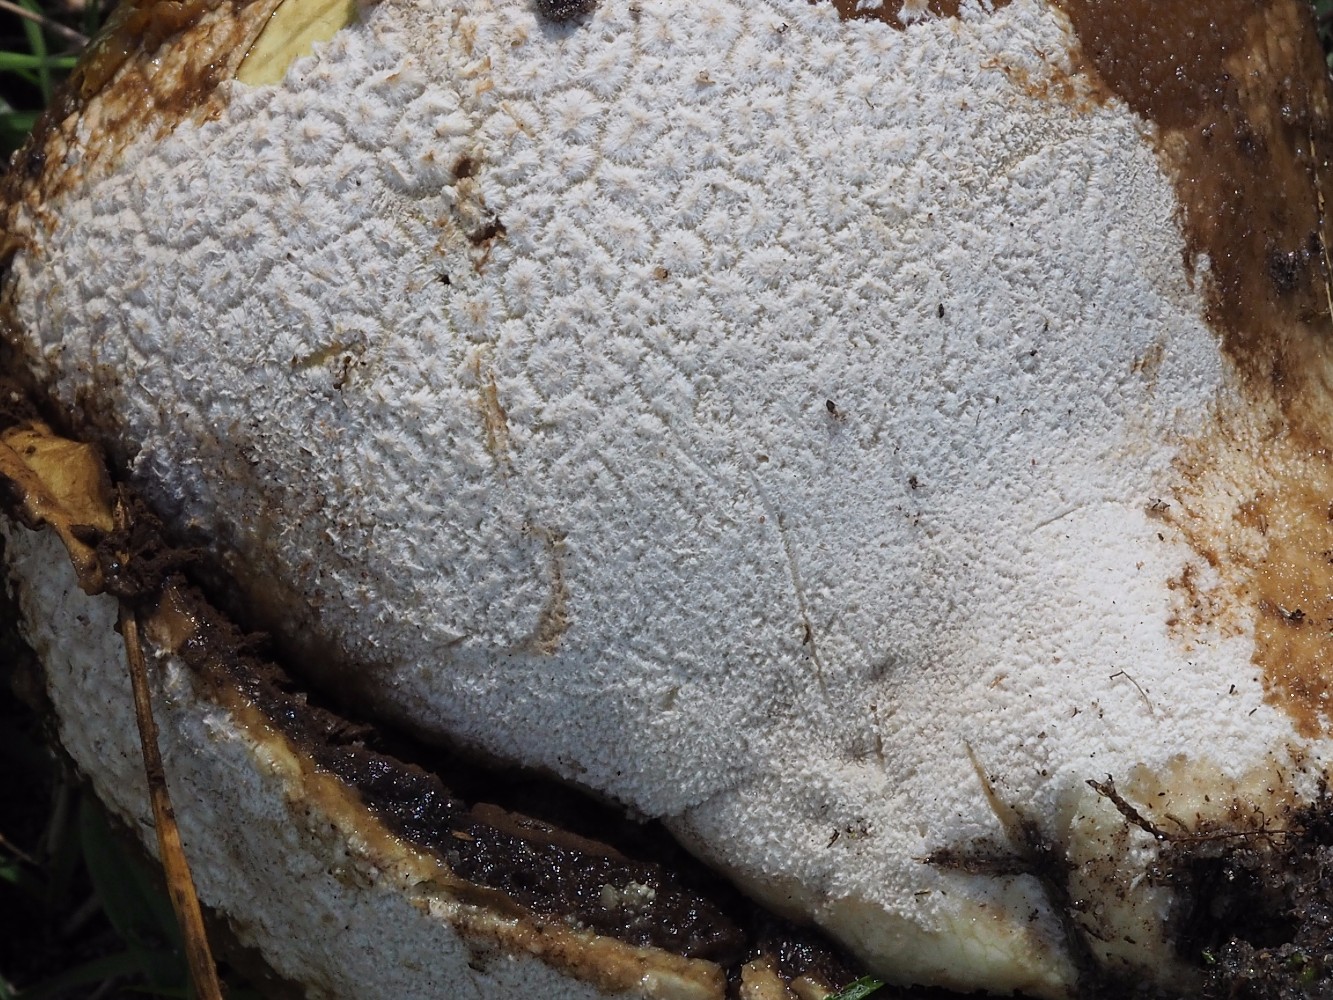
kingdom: Fungi
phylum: Basidiomycota
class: Agaricomycetes
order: Agaricales
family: Lycoperdaceae
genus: Bovistella
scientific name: Bovistella utriformis
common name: skællet støvbold
